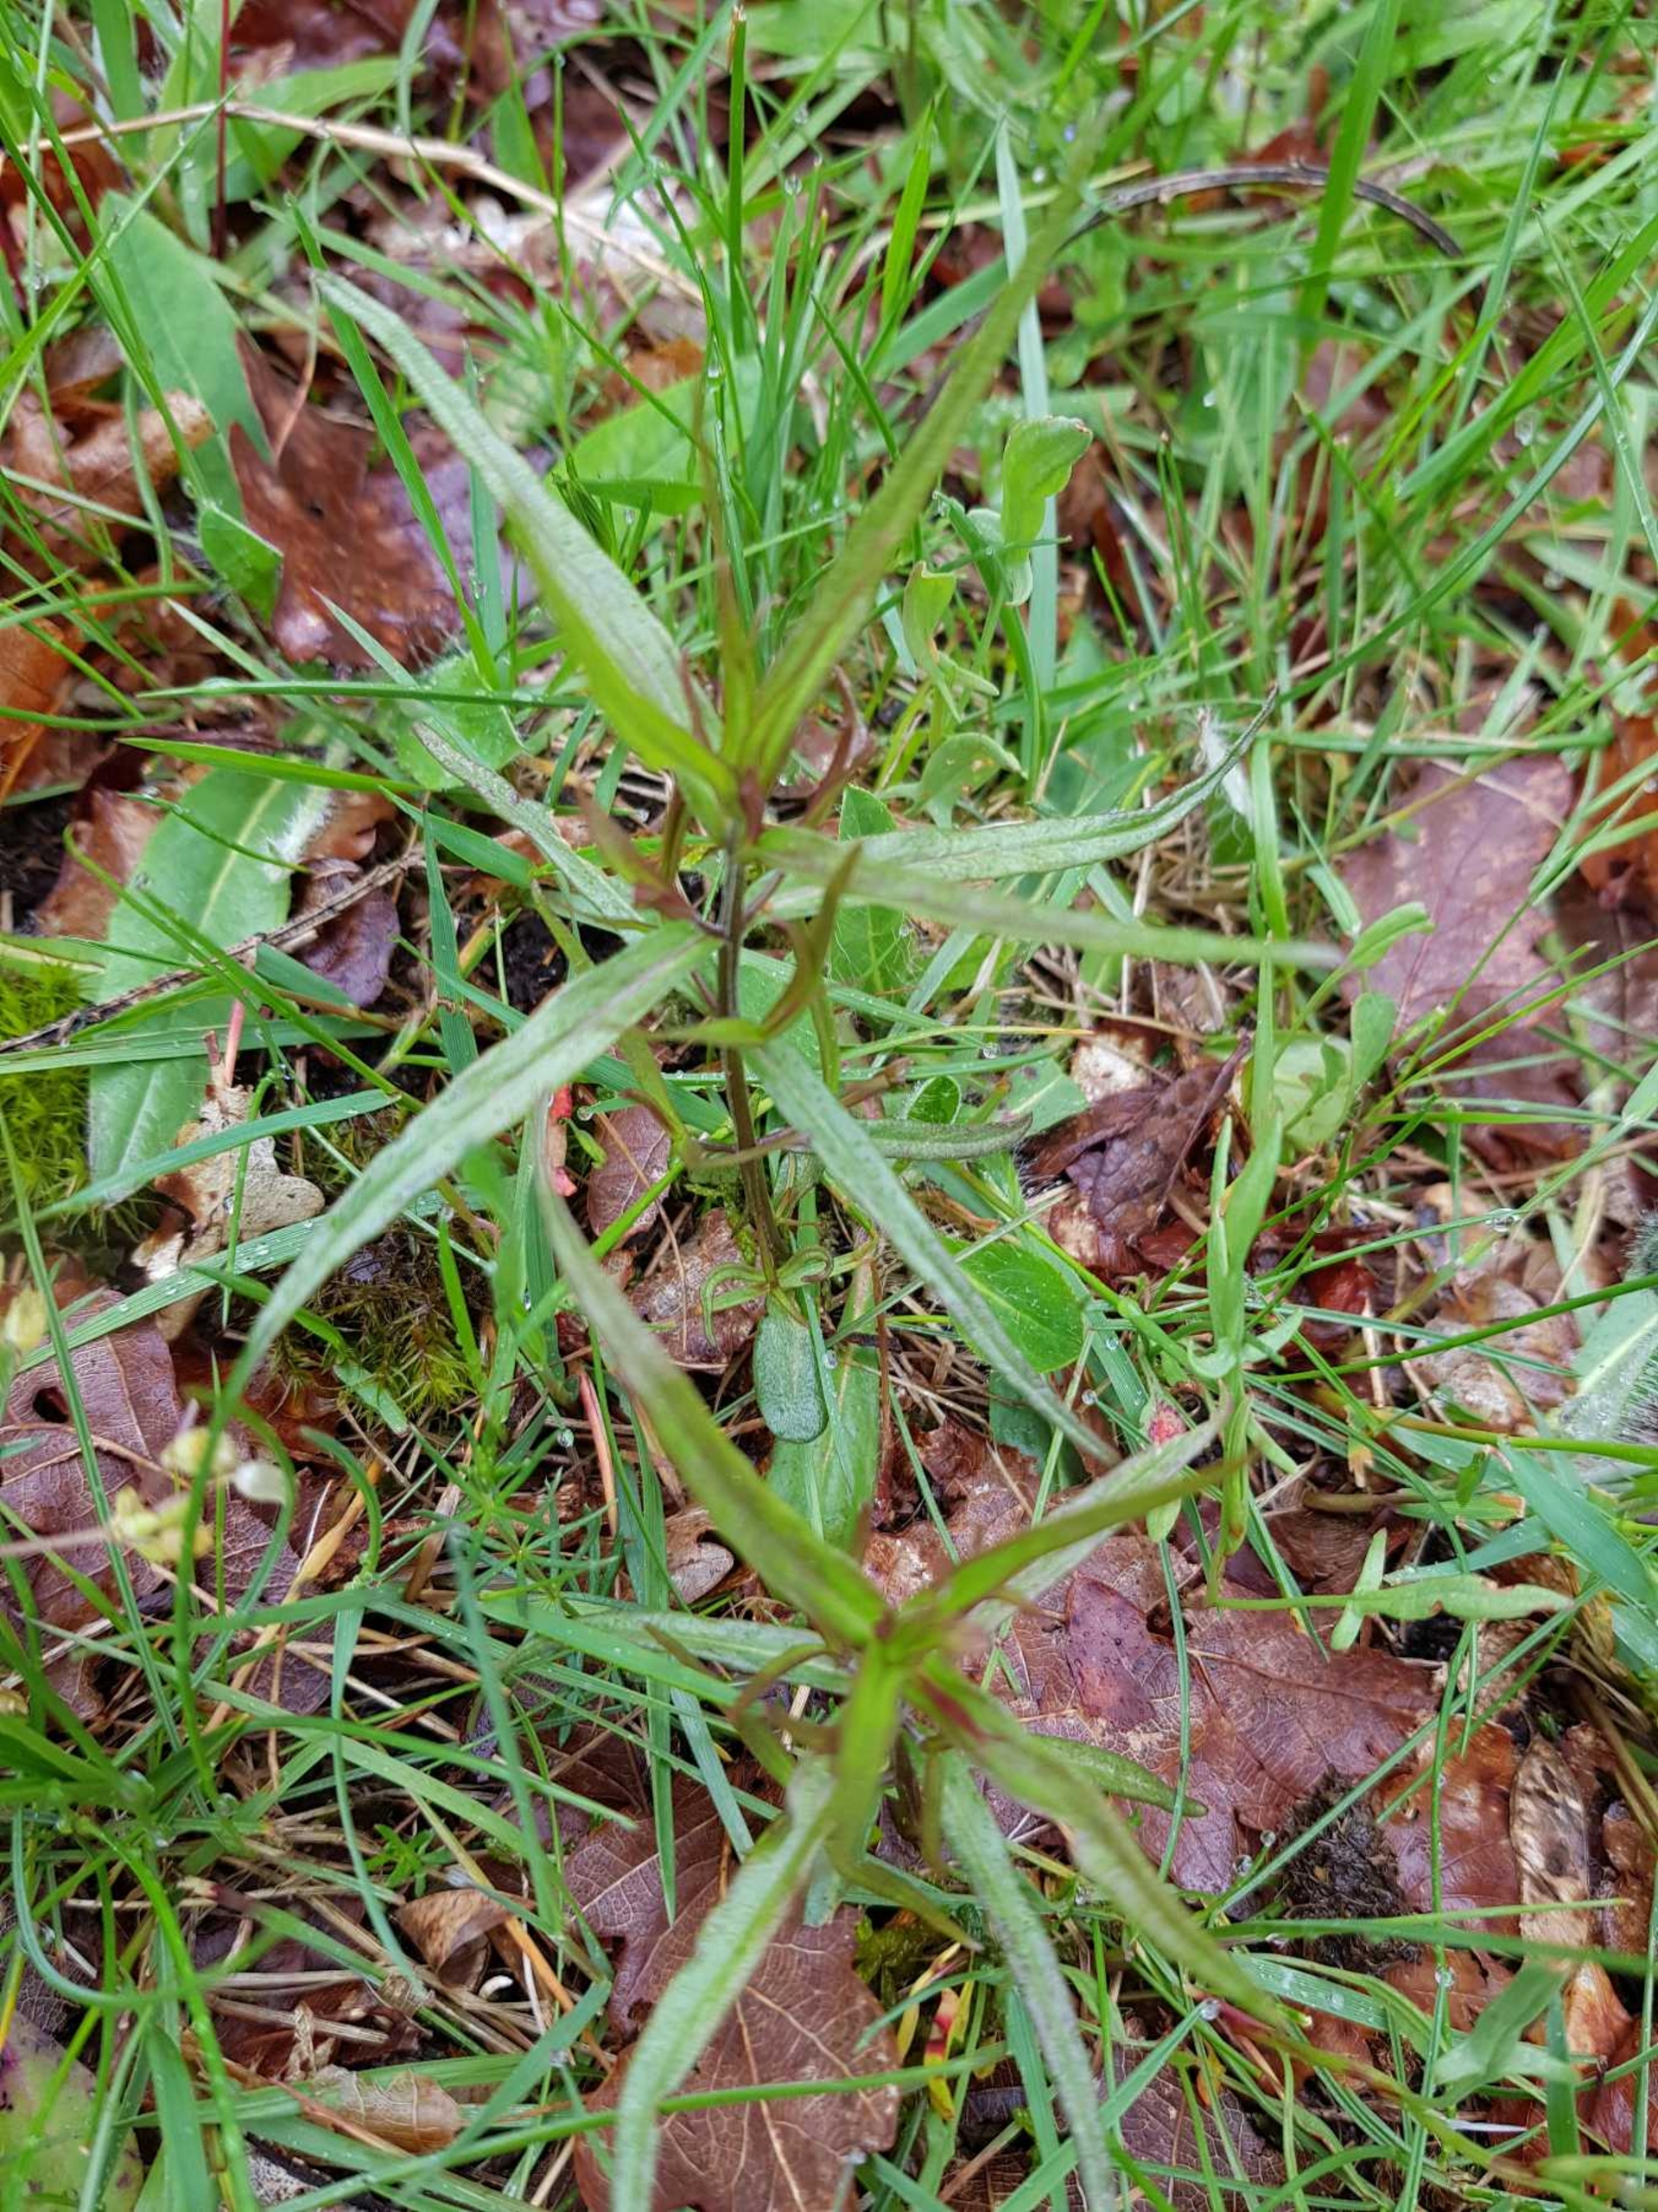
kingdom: Plantae
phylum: Tracheophyta
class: Magnoliopsida
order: Lamiales
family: Orobanchaceae
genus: Melampyrum
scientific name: Melampyrum cristatum
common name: Kantet kohvede
